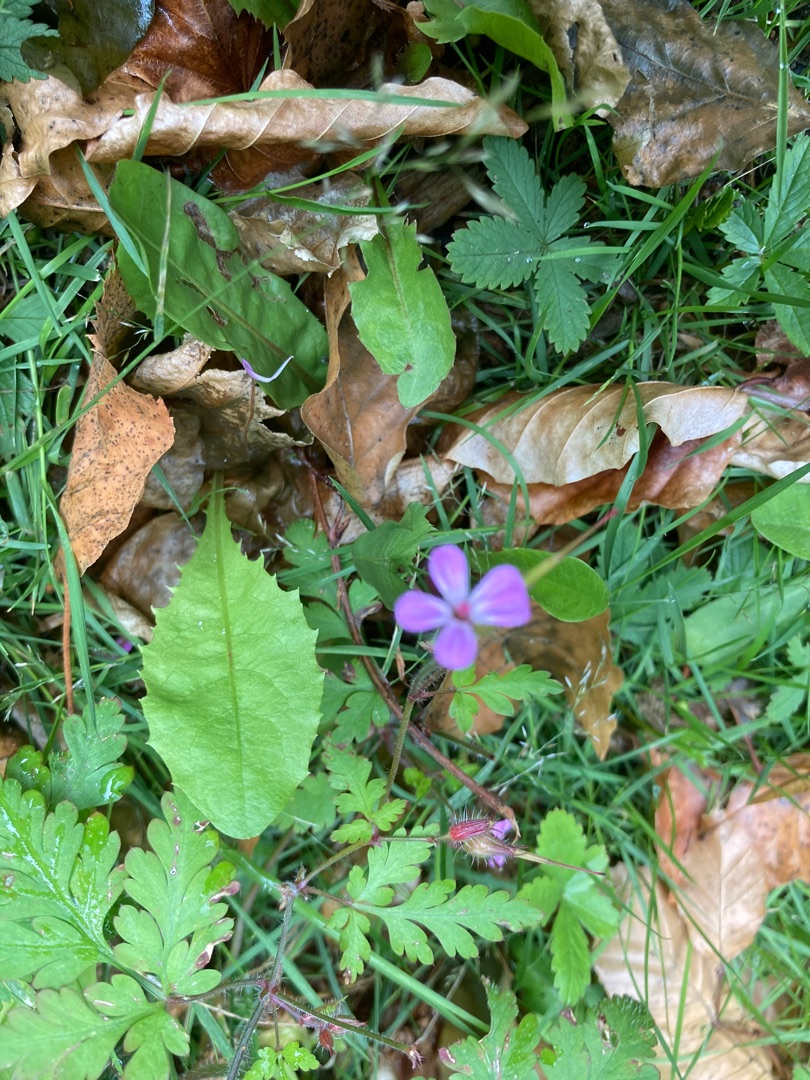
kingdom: Plantae
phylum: Tracheophyta
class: Magnoliopsida
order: Geraniales
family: Geraniaceae
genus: Geranium
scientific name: Geranium robertianum
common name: Stinkende storkenæb
